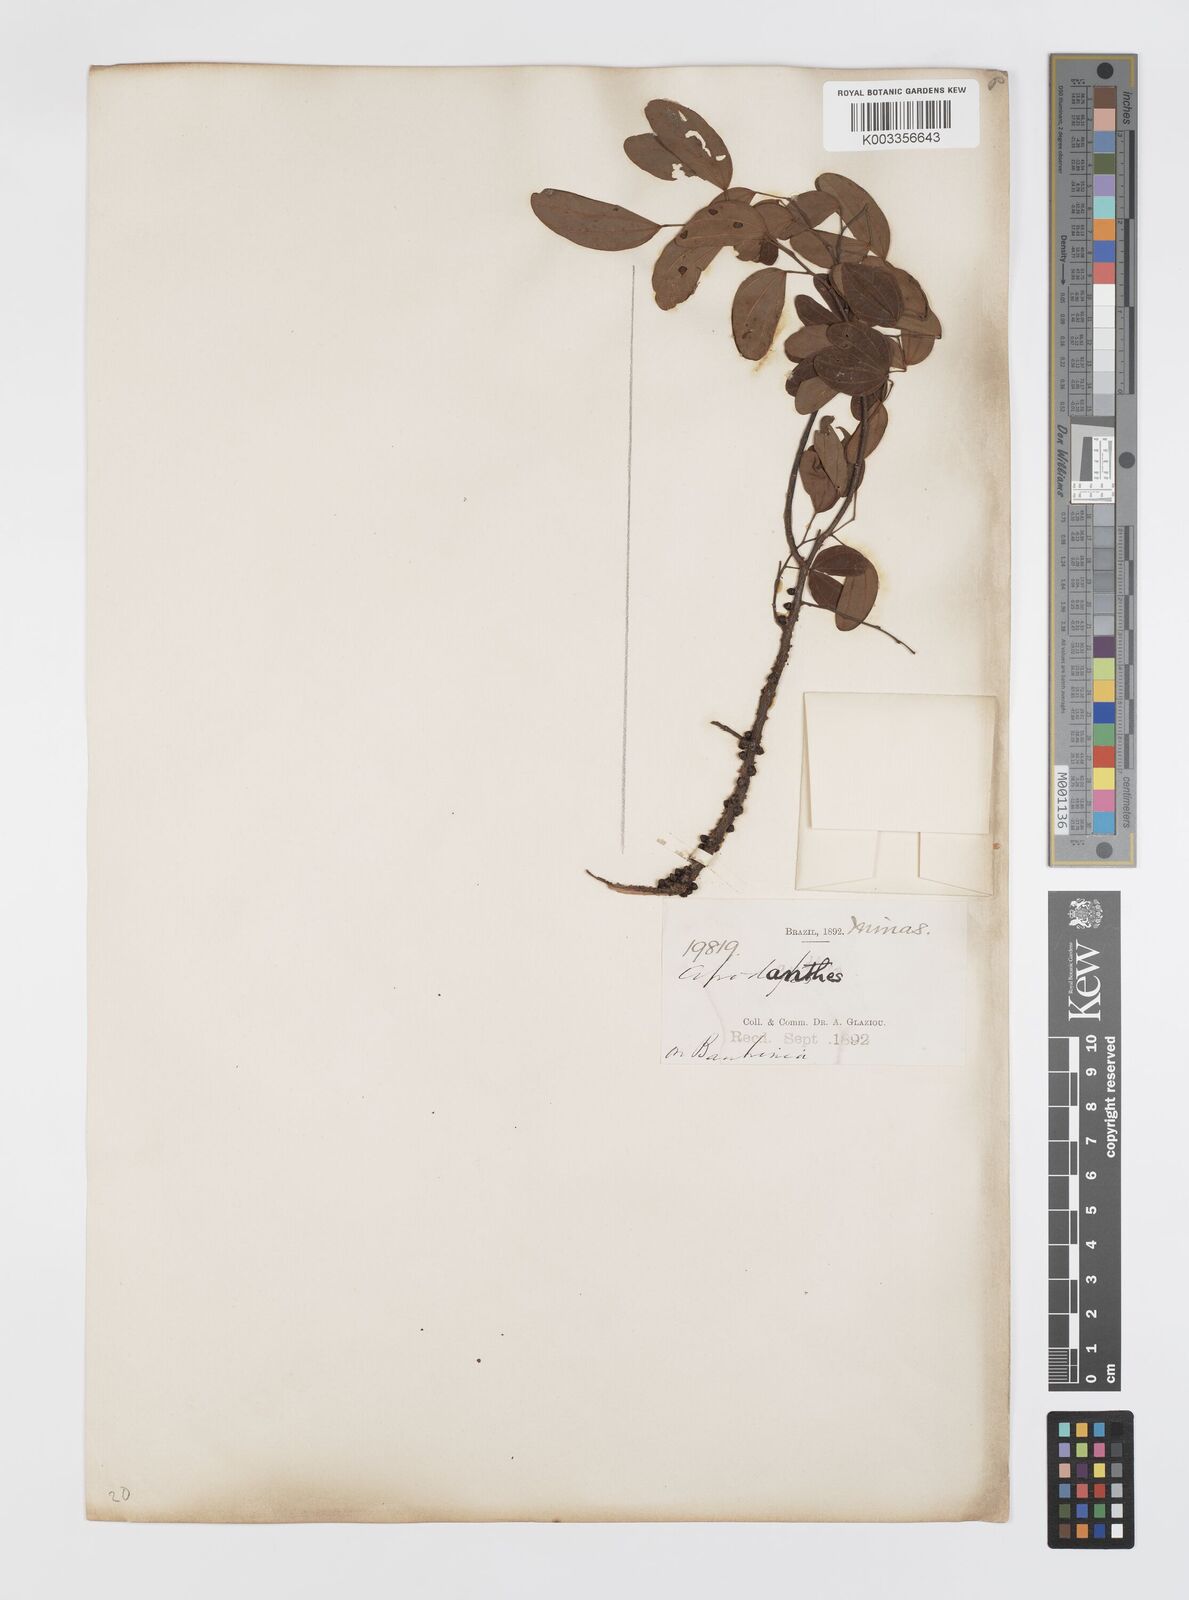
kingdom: Plantae
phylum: Tracheophyta
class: Magnoliopsida
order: Cucurbitales
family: Apodanthaceae
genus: Pilostyles
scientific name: Pilostyles blanchetii
